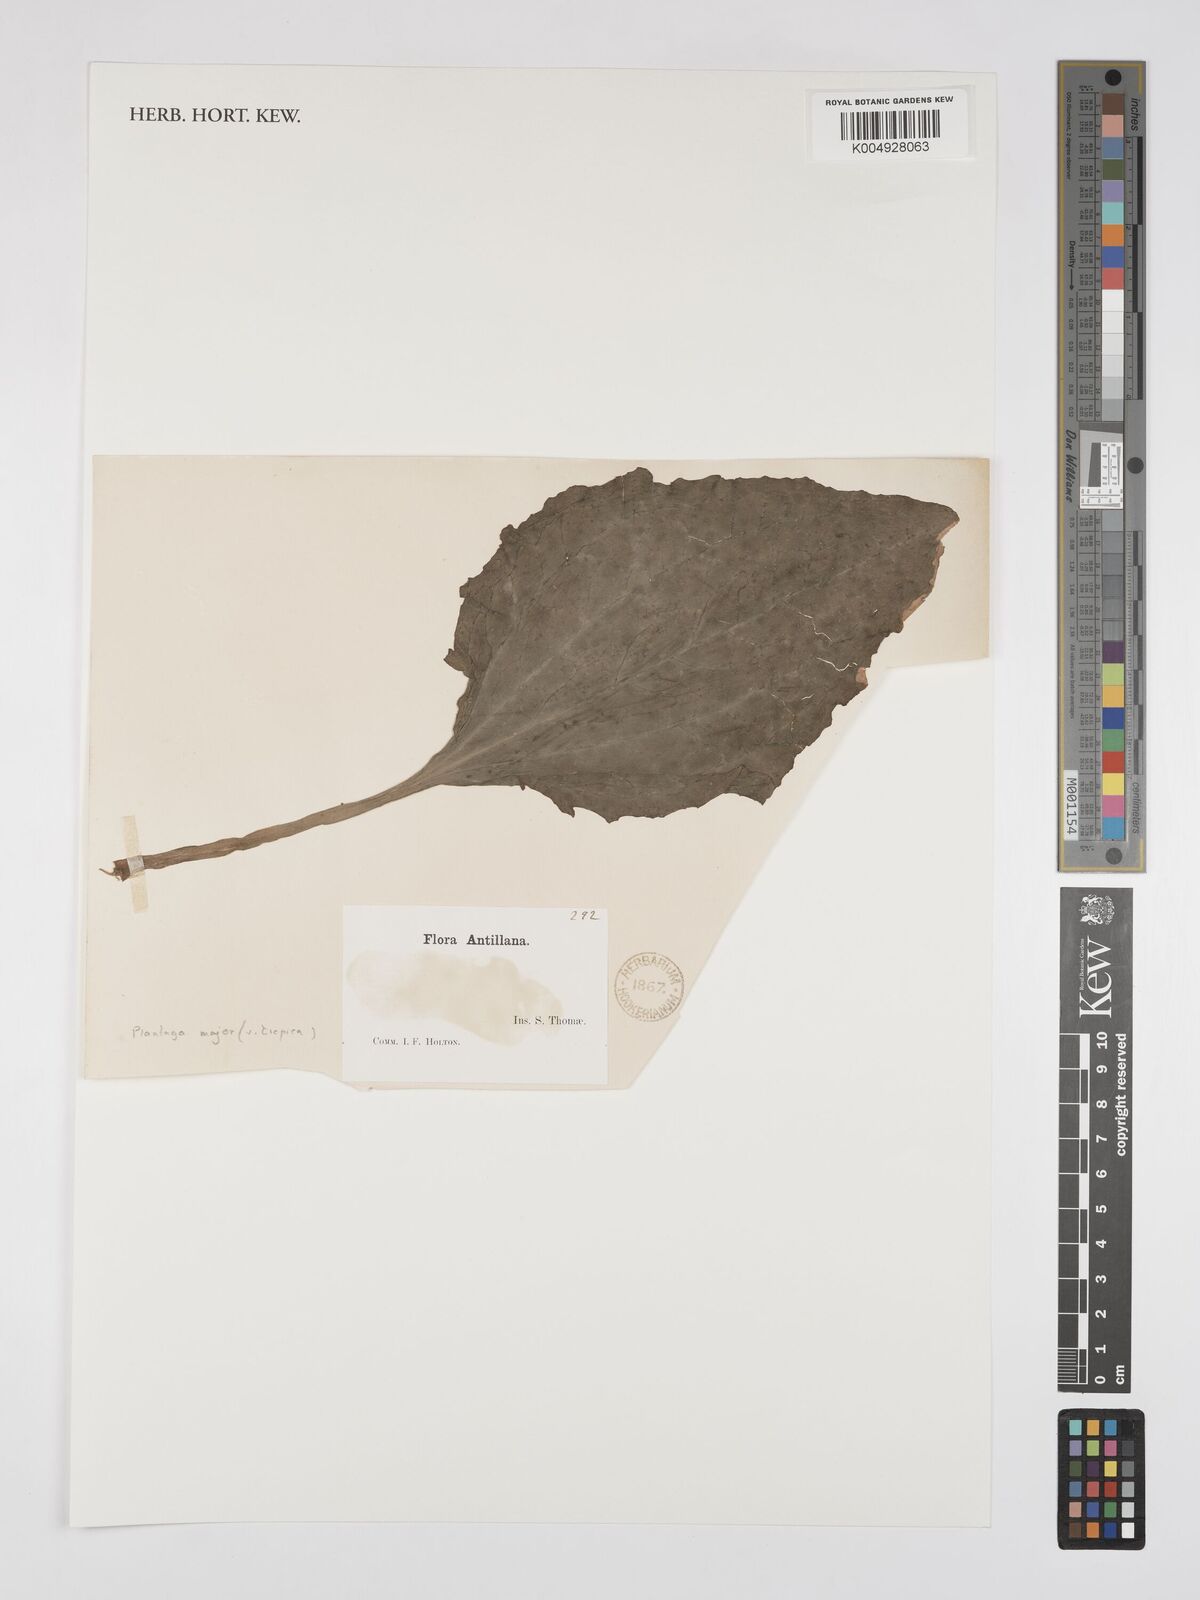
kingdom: Plantae
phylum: Tracheophyta
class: Magnoliopsida
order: Lamiales
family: Plantaginaceae
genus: Plantago
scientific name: Plantago major
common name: Common plantain
